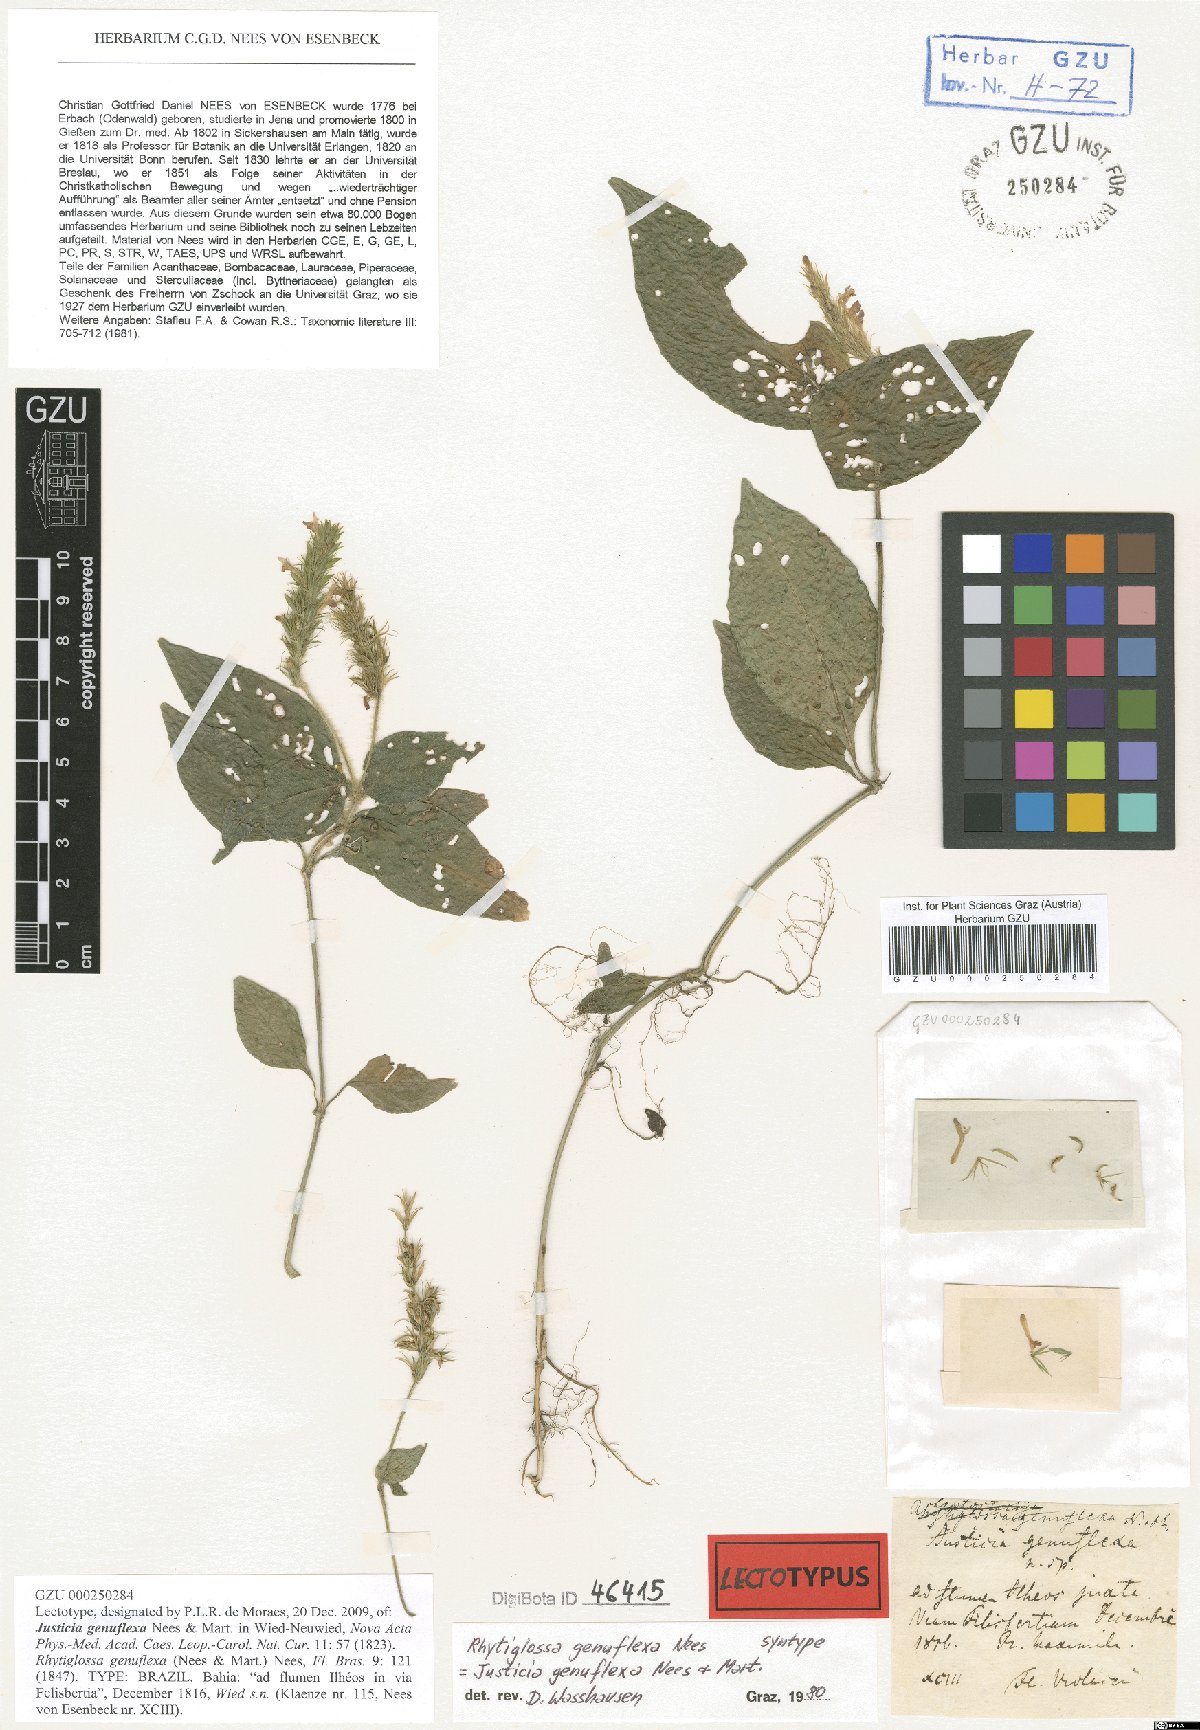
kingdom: Plantae
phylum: Tracheophyta
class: Magnoliopsida
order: Lamiales
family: Acanthaceae
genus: Justicia
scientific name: Justicia genuflexa
